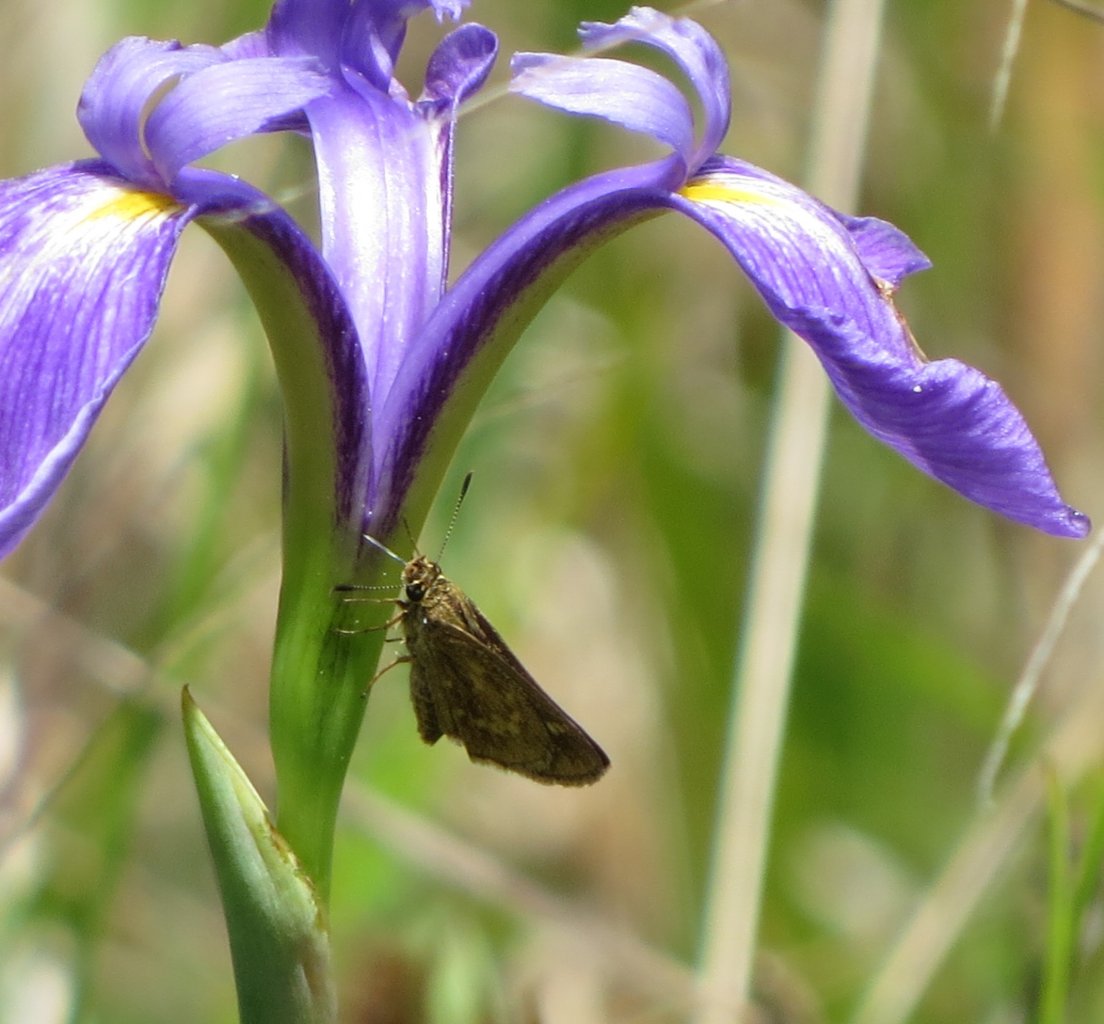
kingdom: Animalia
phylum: Arthropoda
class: Insecta
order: Lepidoptera
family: Hesperiidae
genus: Mastor
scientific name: Mastor carolina
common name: Reversed Roadside-skipper
